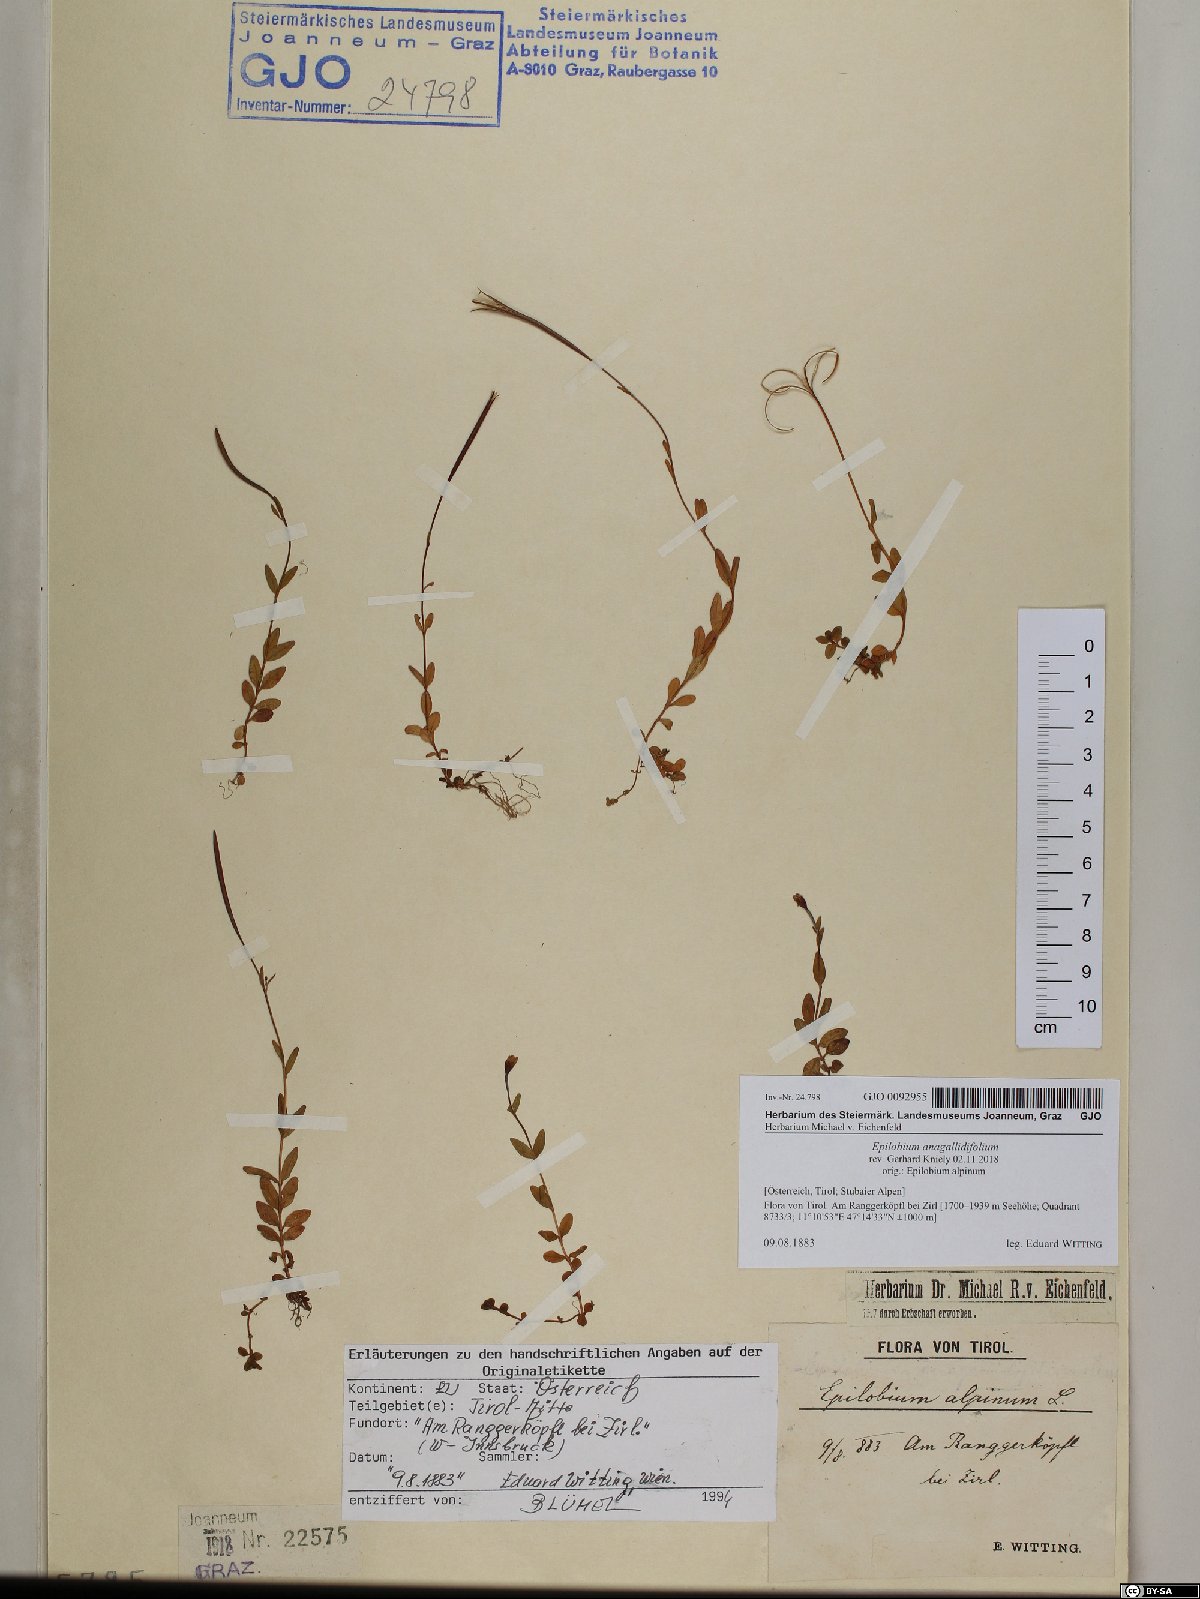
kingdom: Plantae
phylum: Tracheophyta
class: Magnoliopsida
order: Myrtales
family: Onagraceae
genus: Epilobium
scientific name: Epilobium anagallidifolium
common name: Alpine willowherb
